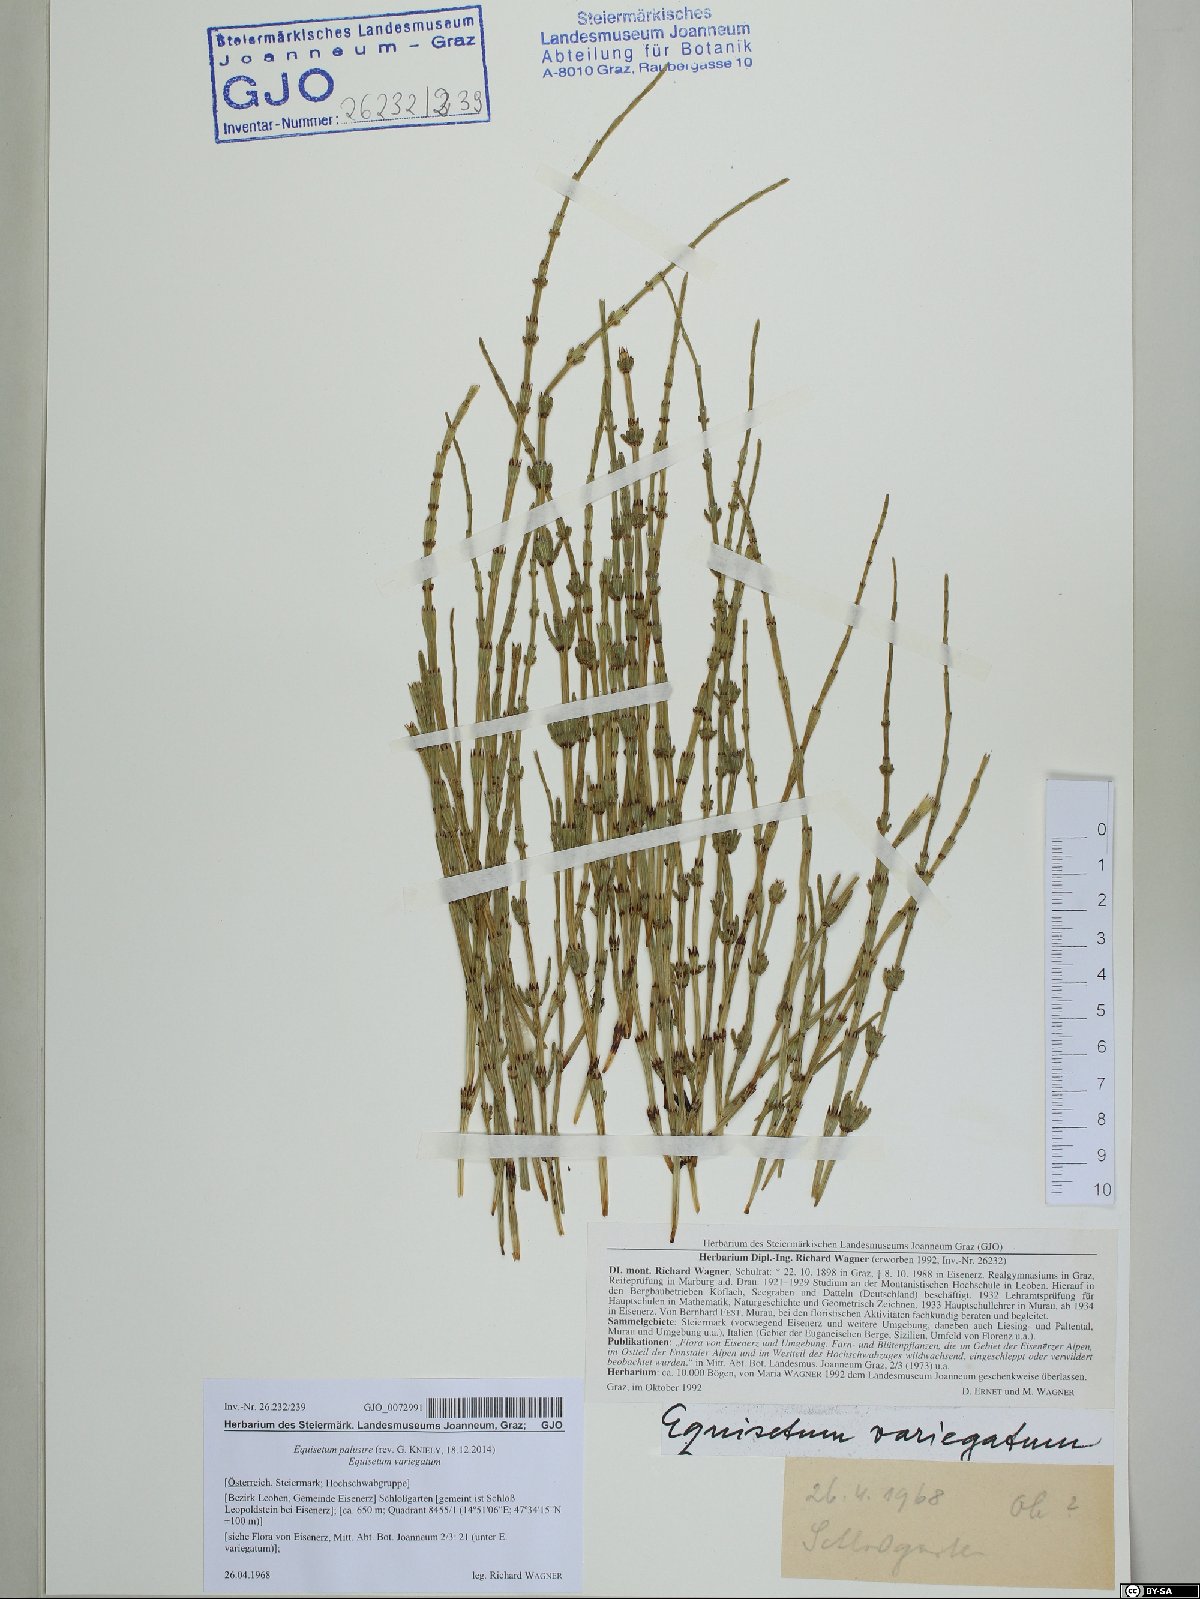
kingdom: Plantae
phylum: Tracheophyta
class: Polypodiopsida
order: Equisetales
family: Equisetaceae
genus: Equisetum
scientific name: Equisetum palustre
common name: Marsh horsetail
